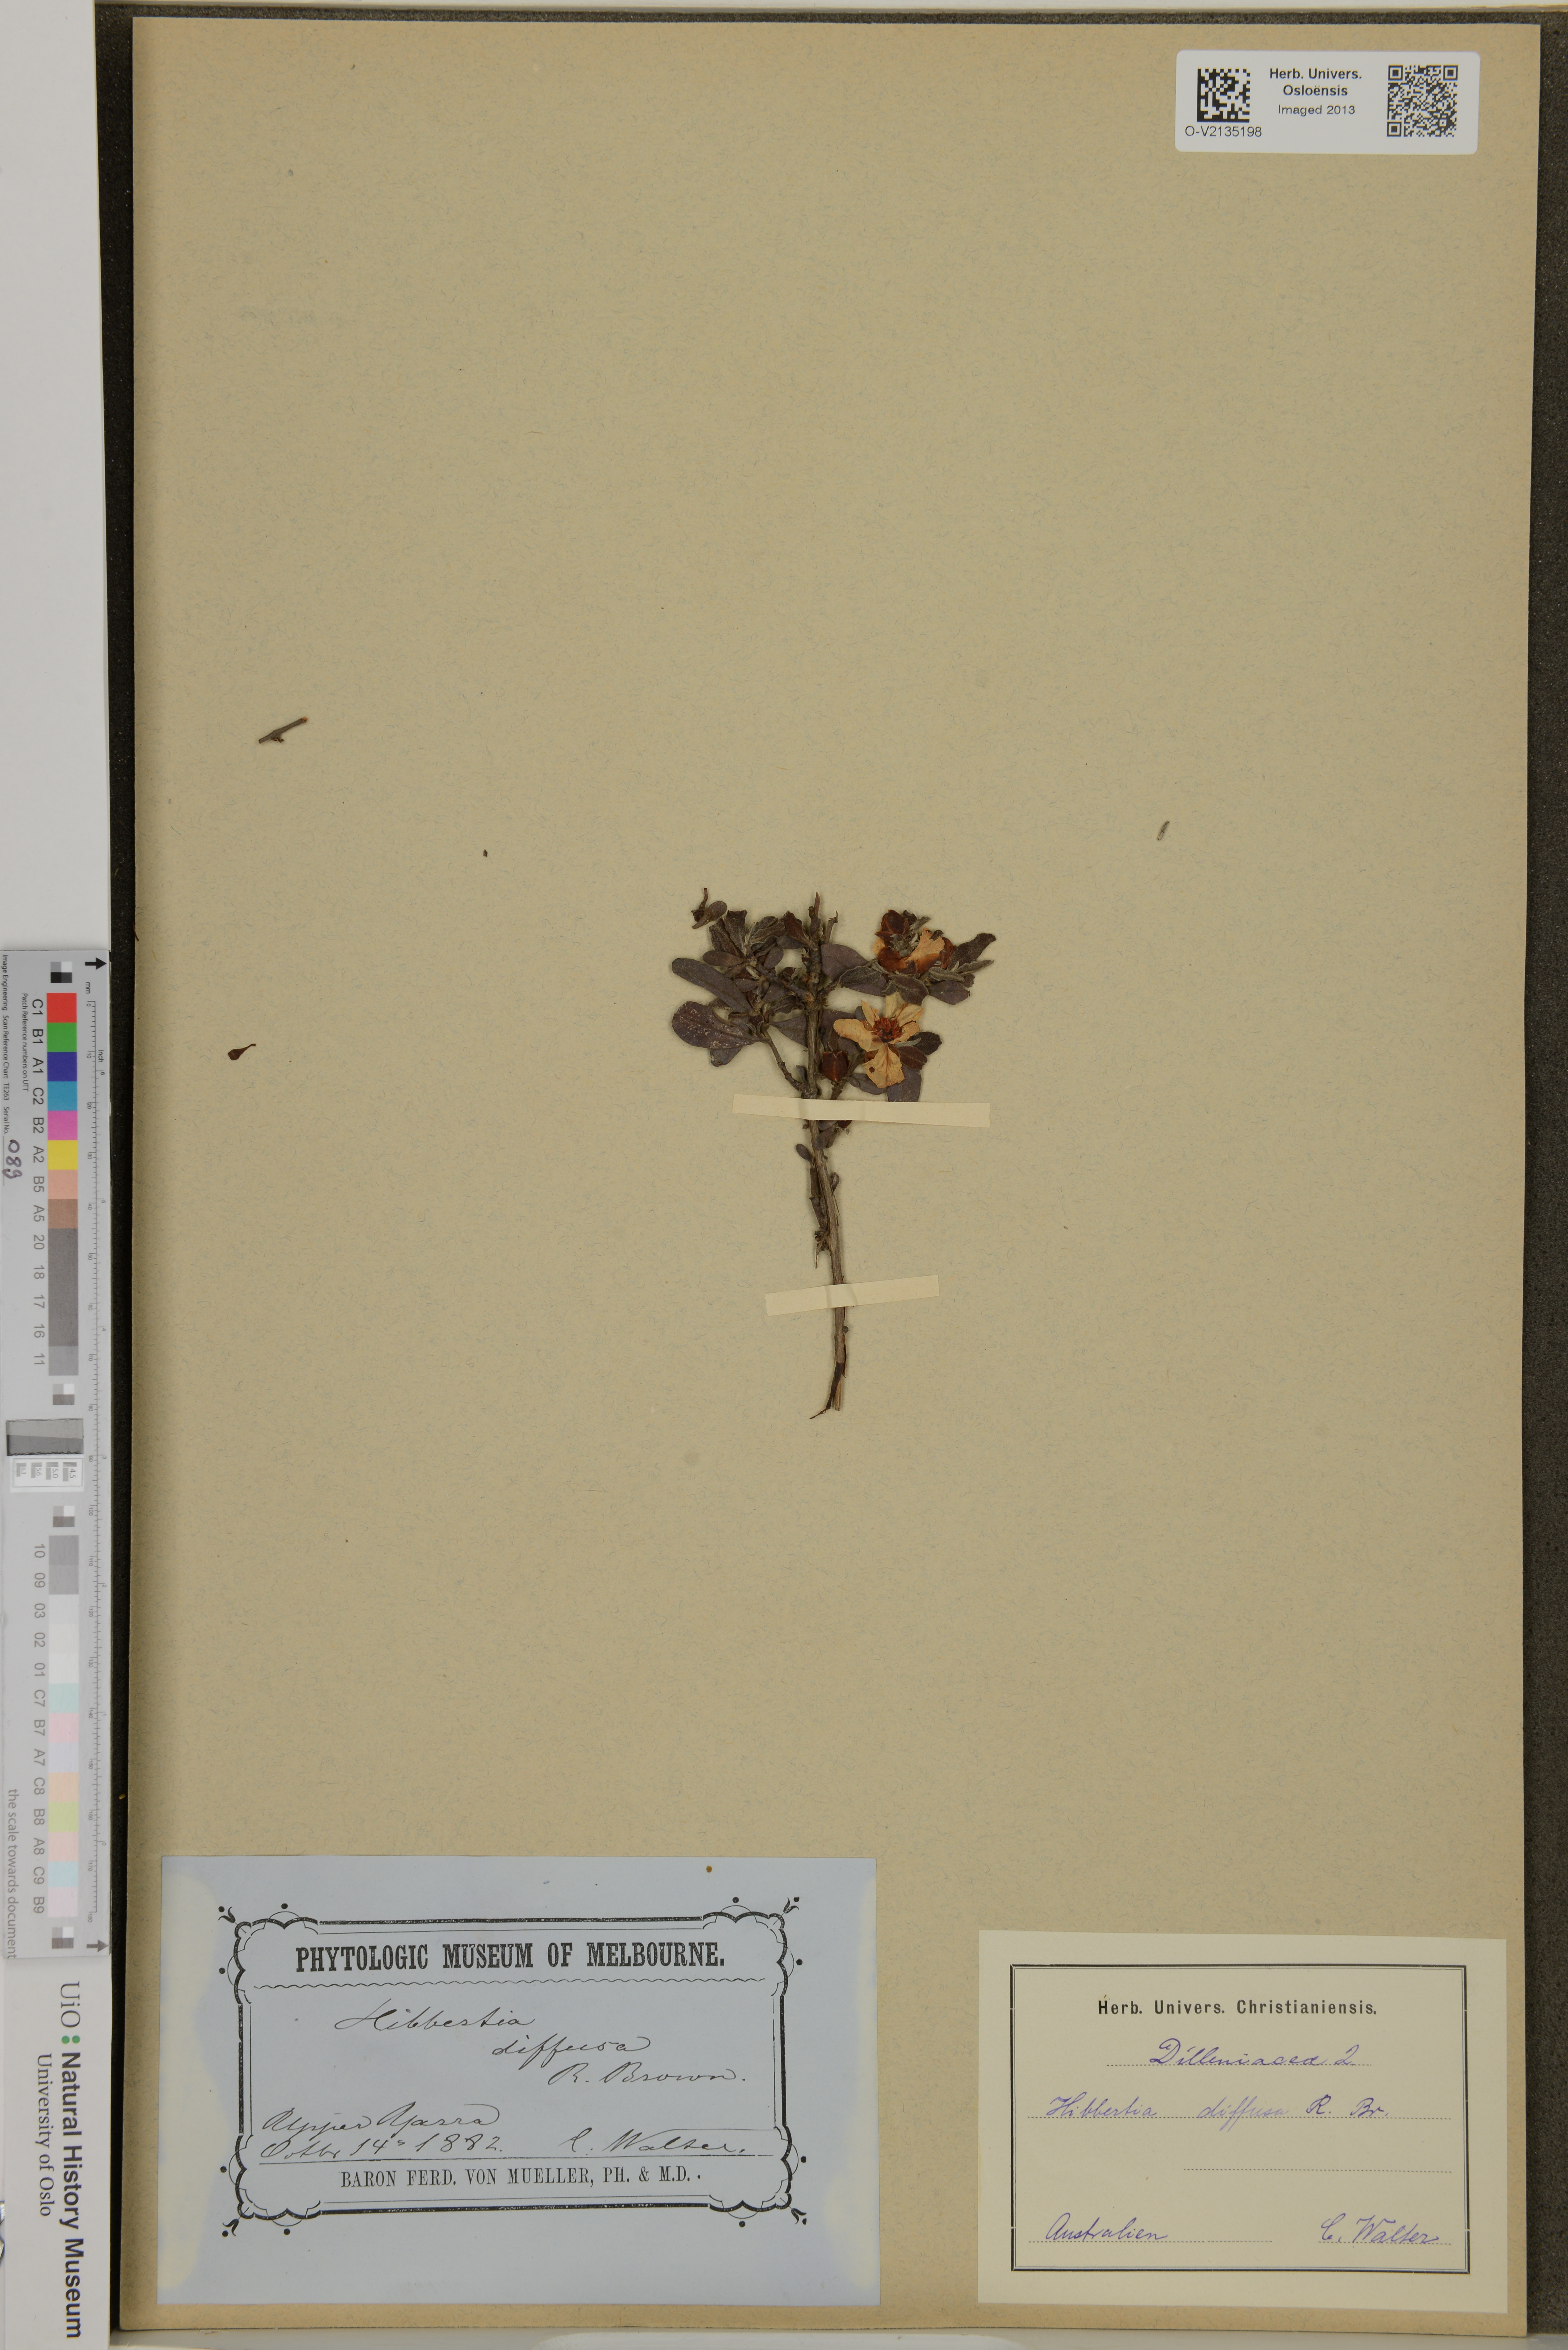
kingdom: Plantae
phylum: Tracheophyta
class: Magnoliopsida
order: Dilleniales
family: Dilleniaceae
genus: Hibbertia
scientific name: Hibbertia diffusa
